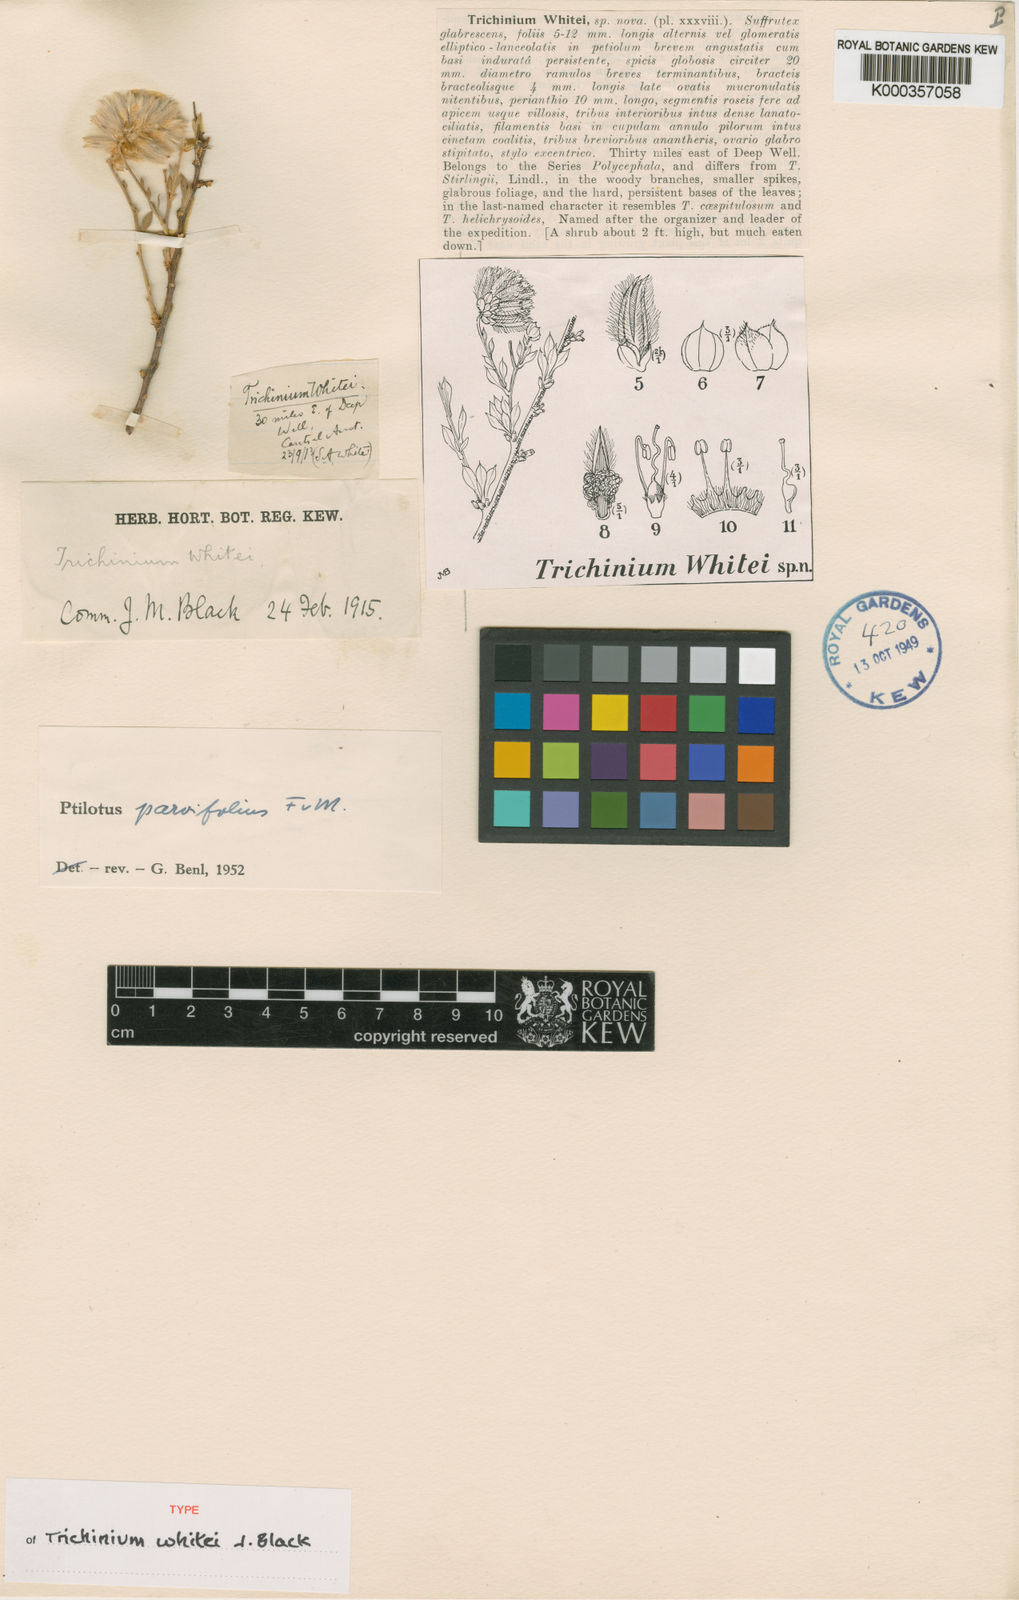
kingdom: Plantae
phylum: Tracheophyta
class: Magnoliopsida
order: Caryophyllales
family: Amaranthaceae
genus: Ptilotus
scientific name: Ptilotus parvifolius
